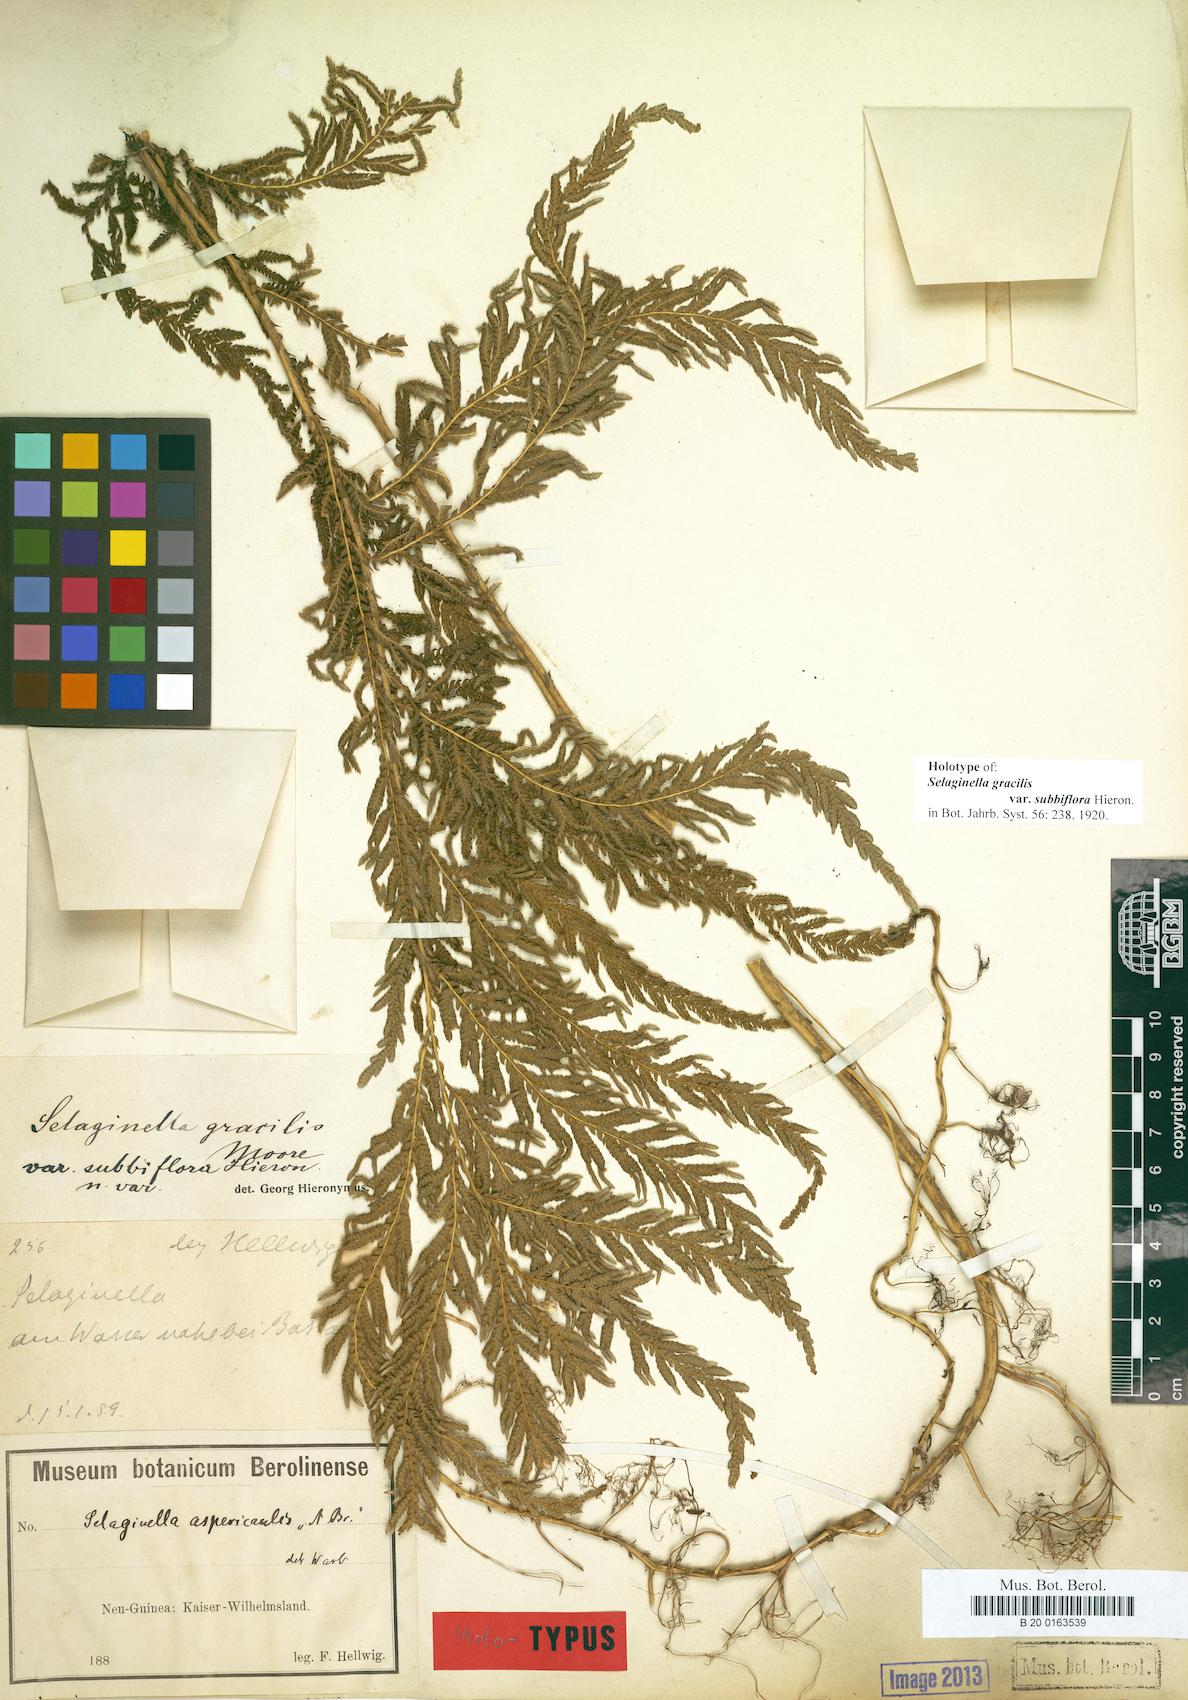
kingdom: Plantae
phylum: Tracheophyta
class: Lycopodiopsida
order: Selaginellales
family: Selaginellaceae
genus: Selaginella
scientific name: Selaginella gracilis
